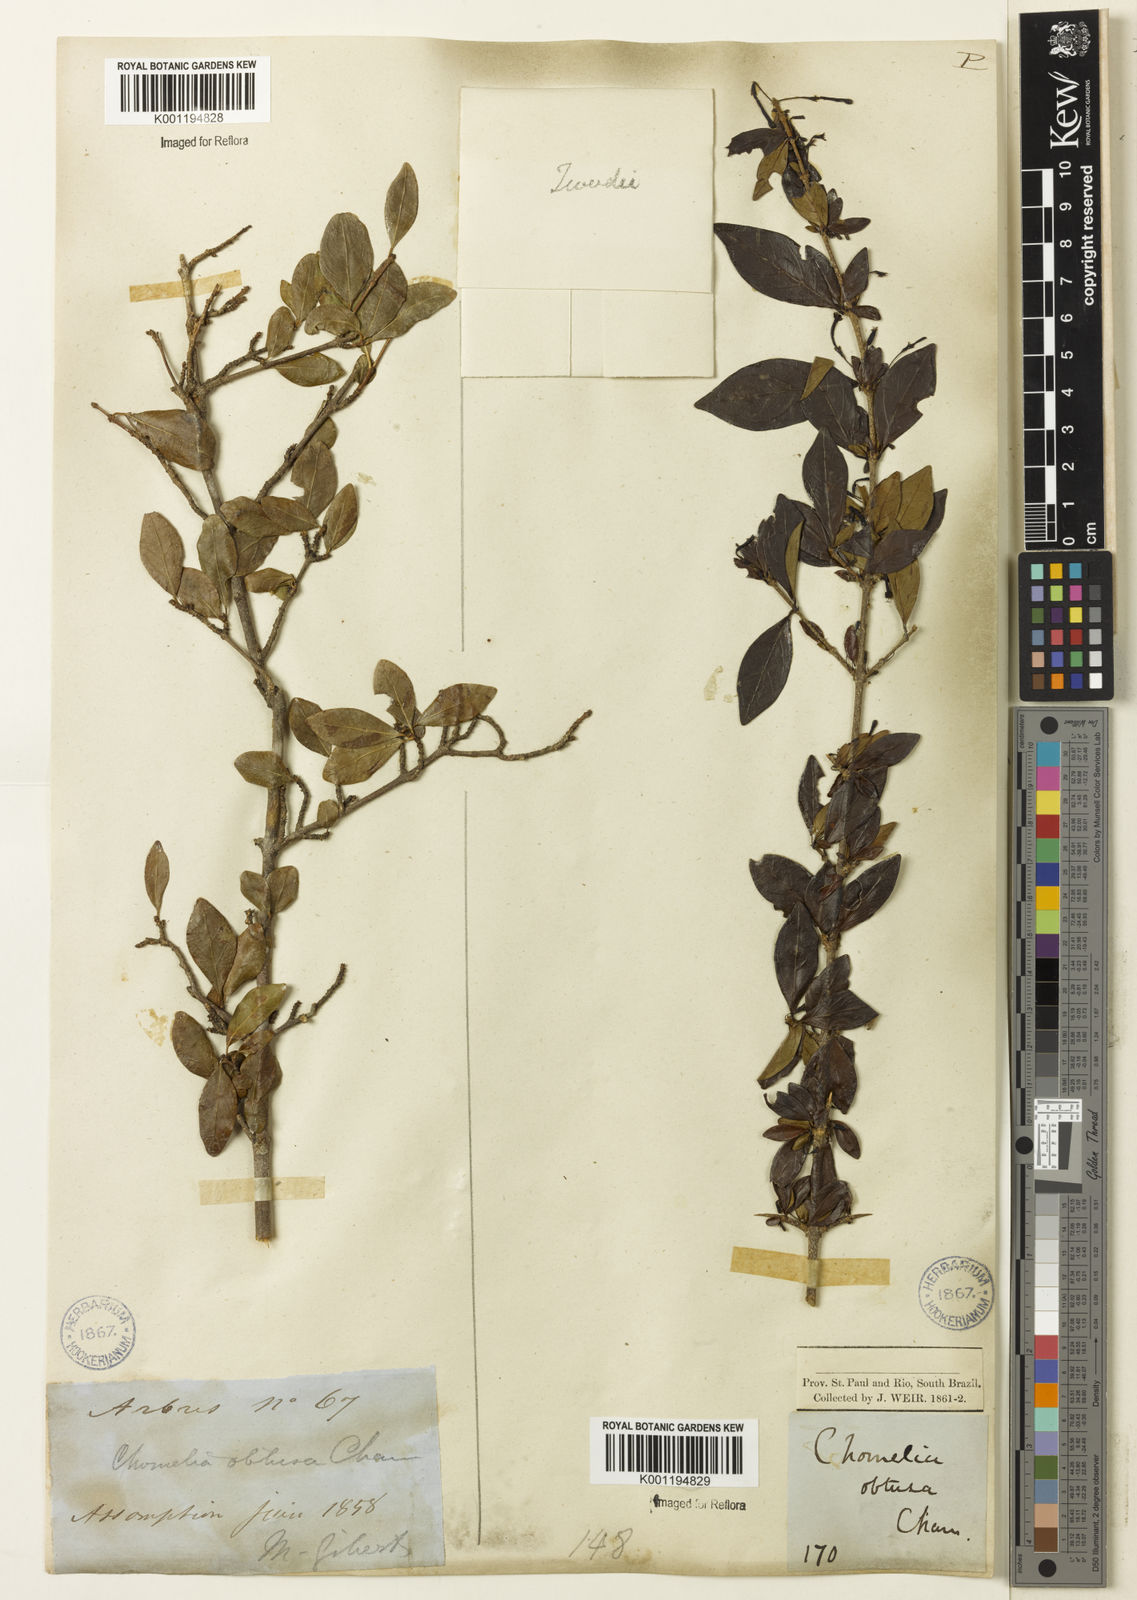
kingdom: Plantae
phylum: Tracheophyta
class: Magnoliopsida
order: Gentianales
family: Rubiaceae
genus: Chomelia
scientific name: Chomelia obtusa
